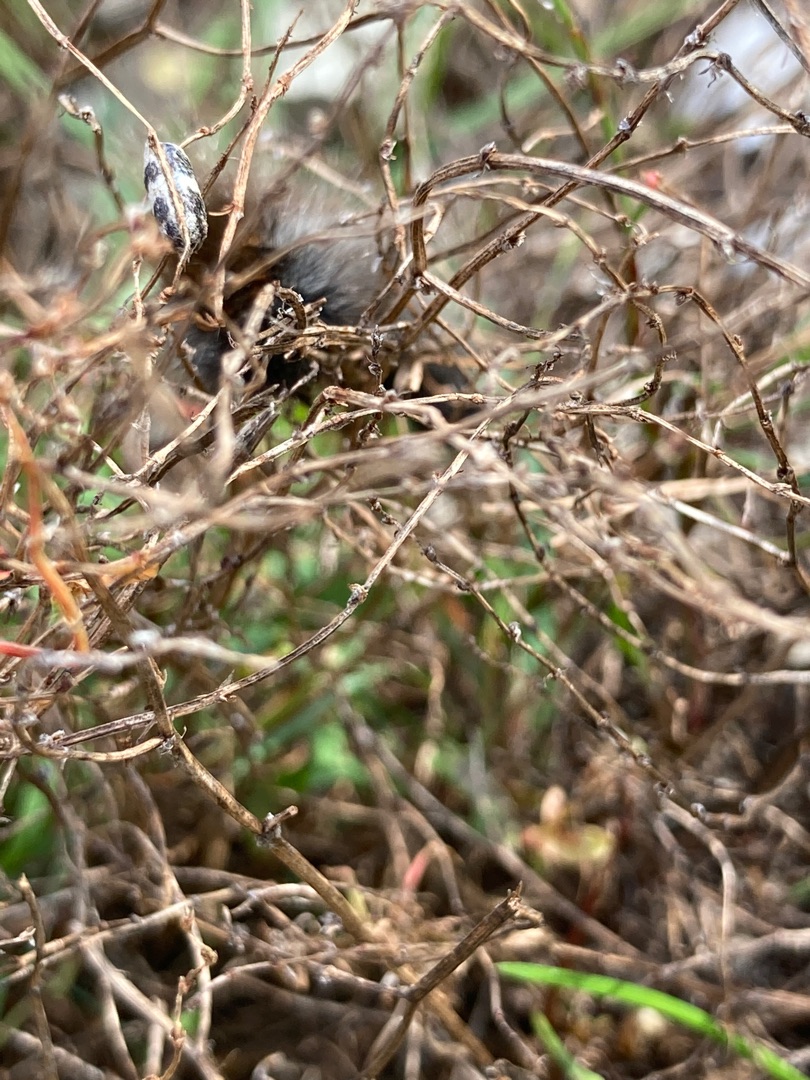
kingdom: Animalia
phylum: Arthropoda
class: Insecta
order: Lepidoptera
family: Lasiocampidae
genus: Macrothylacia
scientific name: Macrothylacia rubi
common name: Brombærspinder
